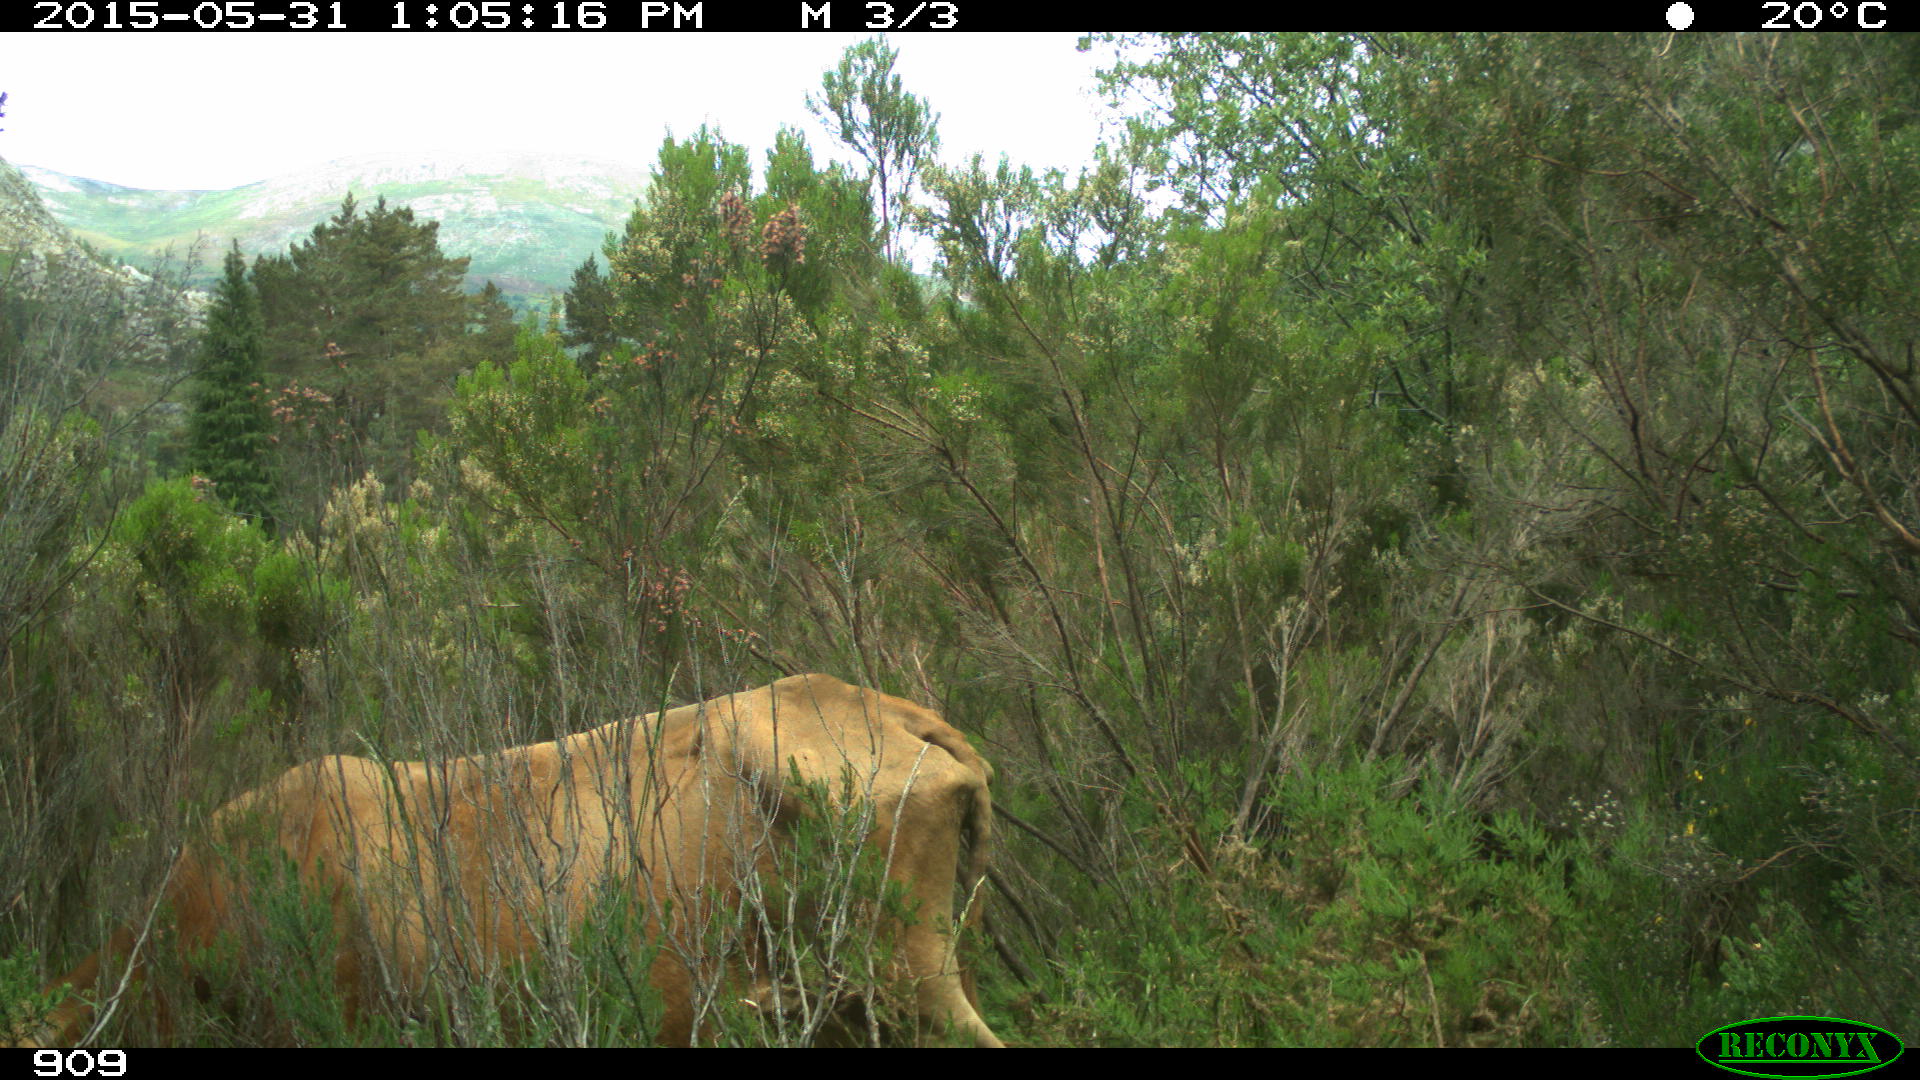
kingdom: Animalia
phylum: Chordata
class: Mammalia
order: Artiodactyla
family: Bovidae
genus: Bos
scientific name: Bos taurus
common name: Domesticated cattle
